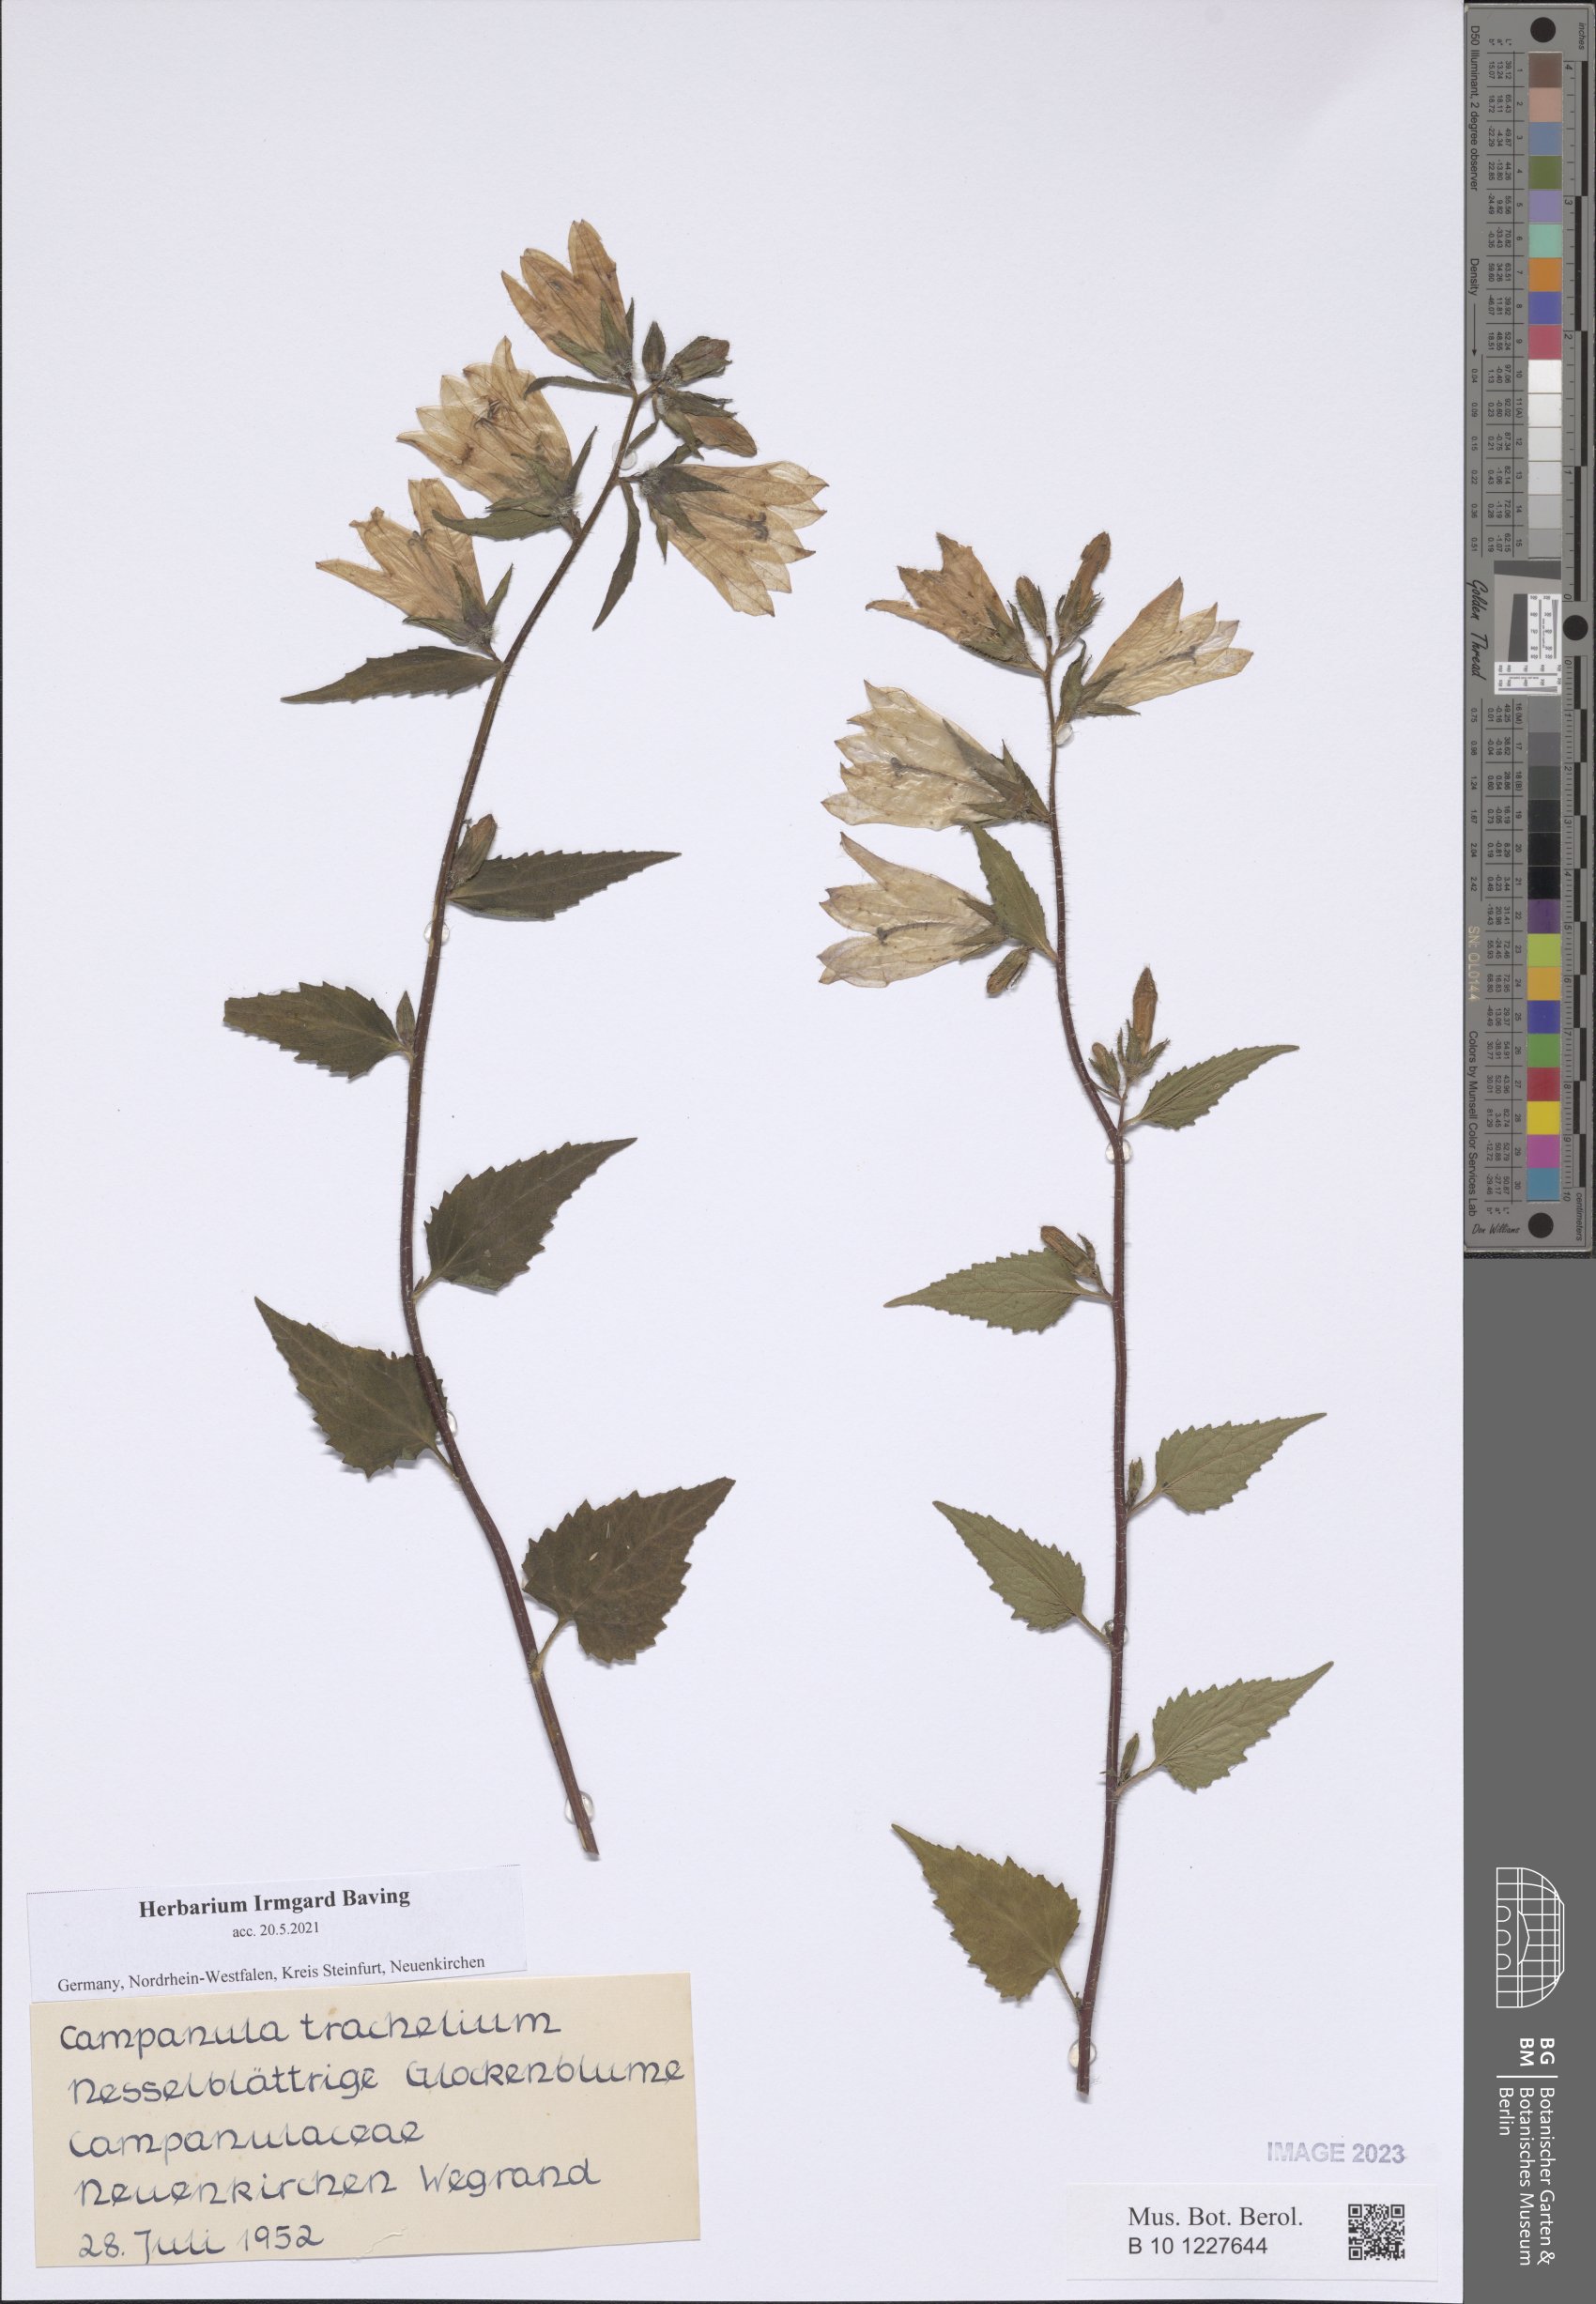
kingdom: Plantae
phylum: Tracheophyta
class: Magnoliopsida
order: Asterales
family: Campanulaceae
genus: Campanula
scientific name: Campanula trachelium
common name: Nettle-leaved bellflower
